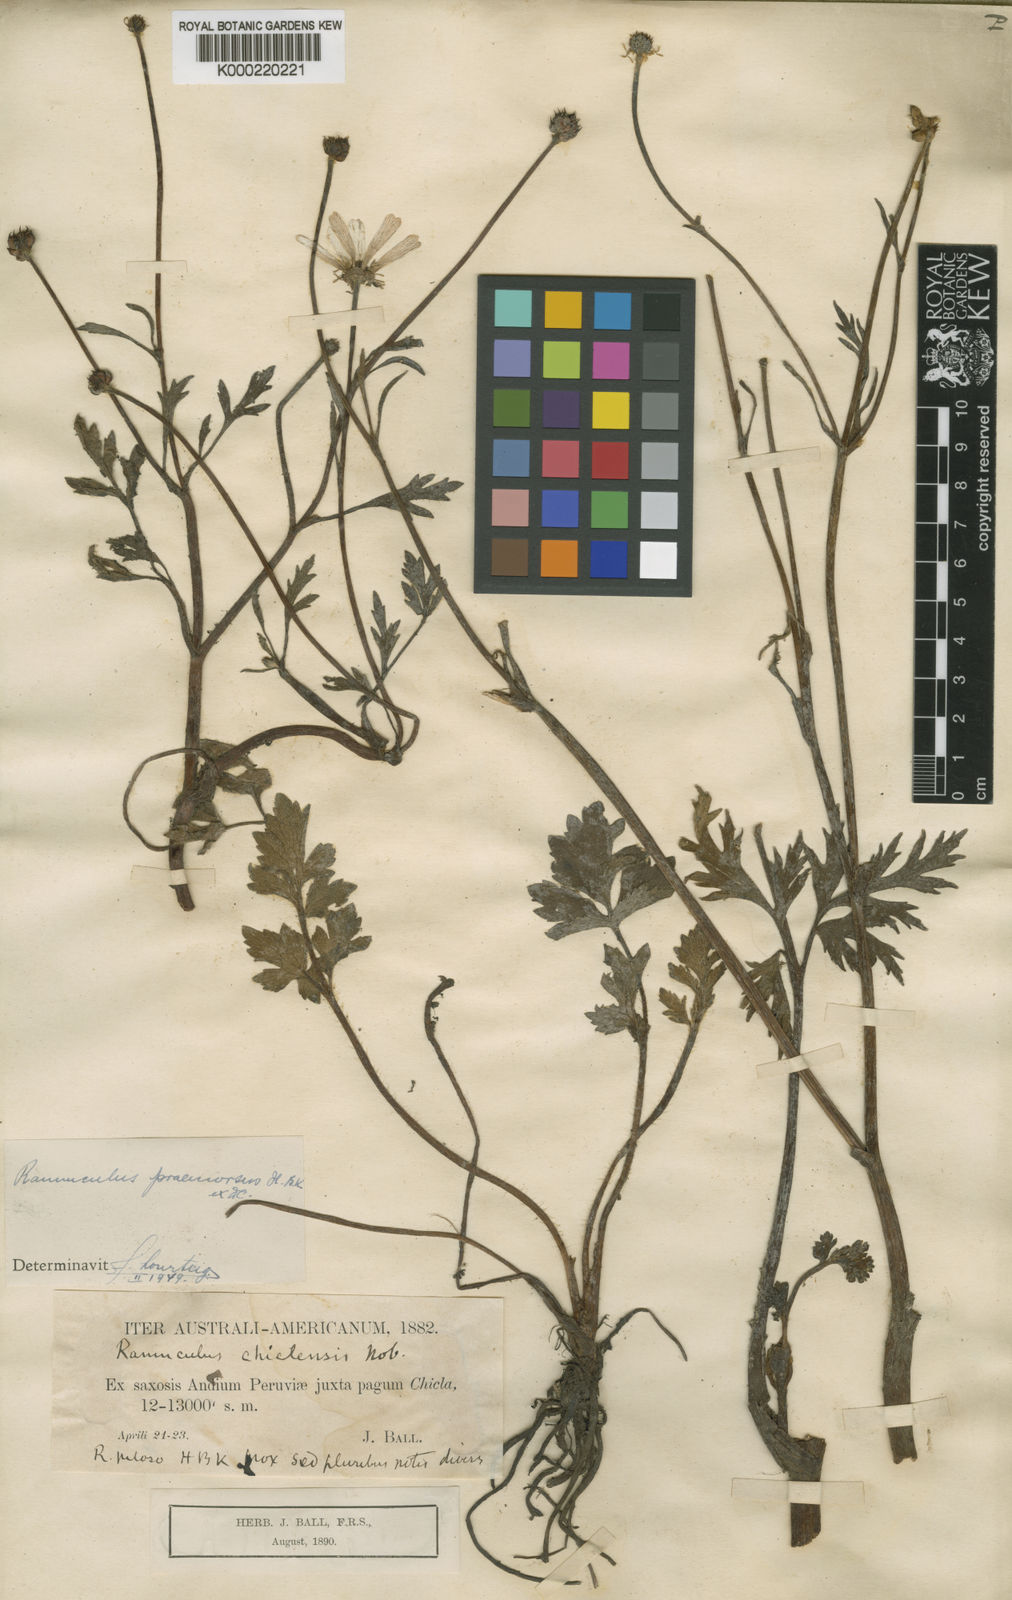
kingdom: Plantae
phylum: Tracheophyta
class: Magnoliopsida
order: Ranunculales
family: Ranunculaceae
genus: Ranunculus
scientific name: Ranunculus praemorsus
